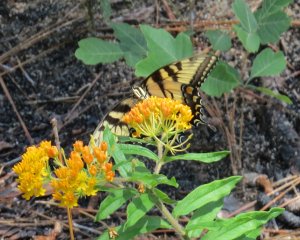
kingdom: Animalia
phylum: Arthropoda
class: Insecta
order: Lepidoptera
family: Papilionidae
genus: Pterourus
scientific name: Pterourus glaucus
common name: Eastern Tiger Swallowtail
